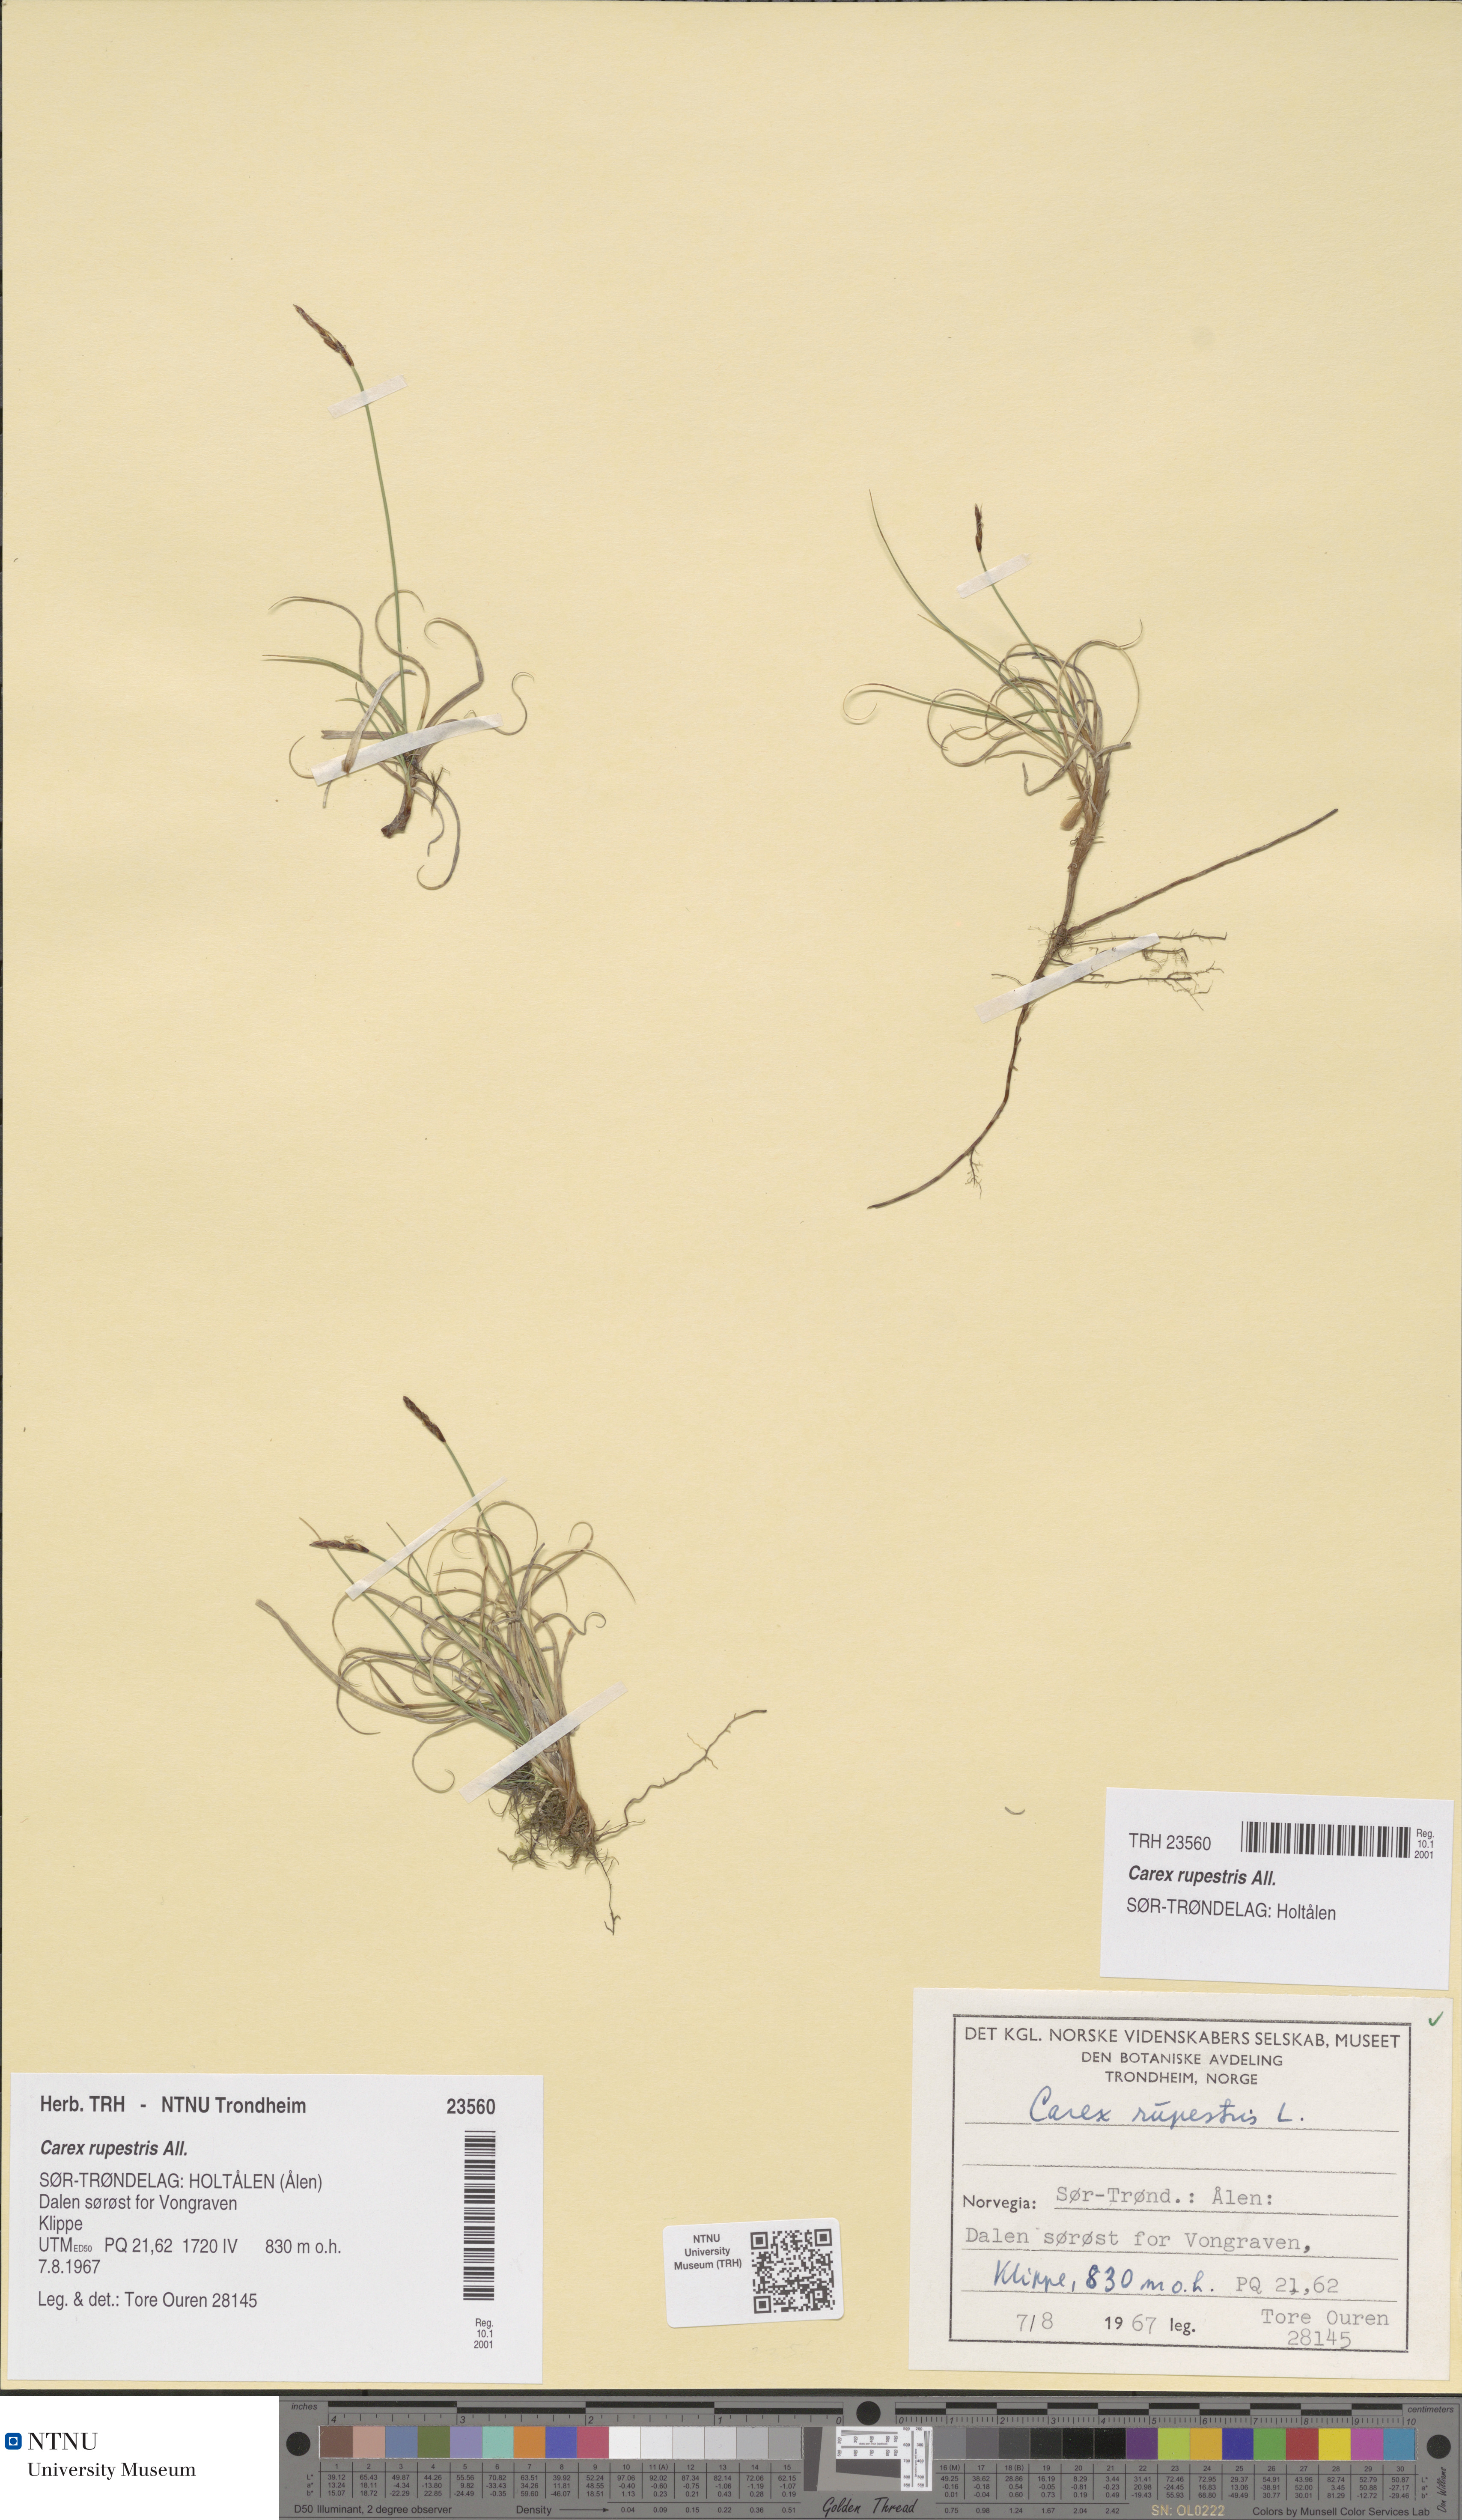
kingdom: Plantae
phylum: Tracheophyta
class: Liliopsida
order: Poales
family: Cyperaceae
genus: Carex
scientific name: Carex rupestris
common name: Rock sedge
